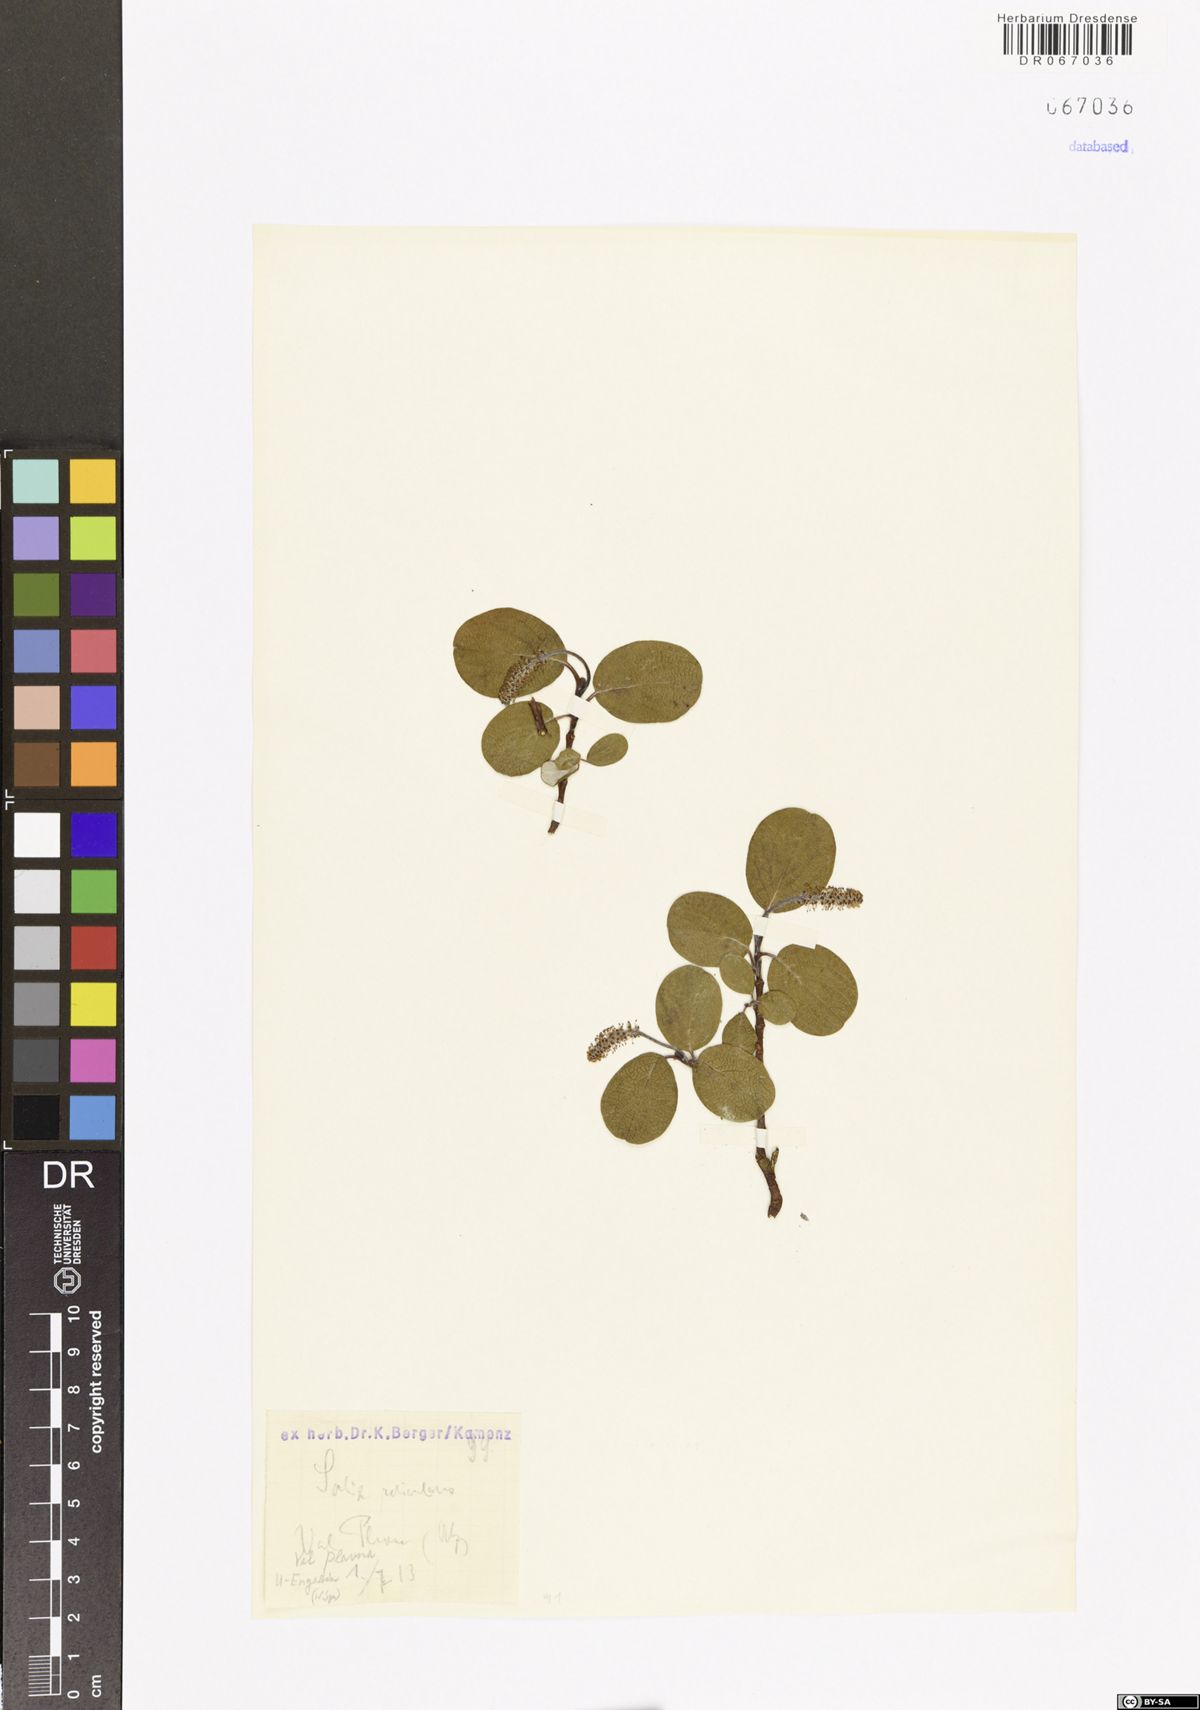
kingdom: Plantae
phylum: Tracheophyta
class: Magnoliopsida
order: Malpighiales
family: Salicaceae
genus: Salix
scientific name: Salix
